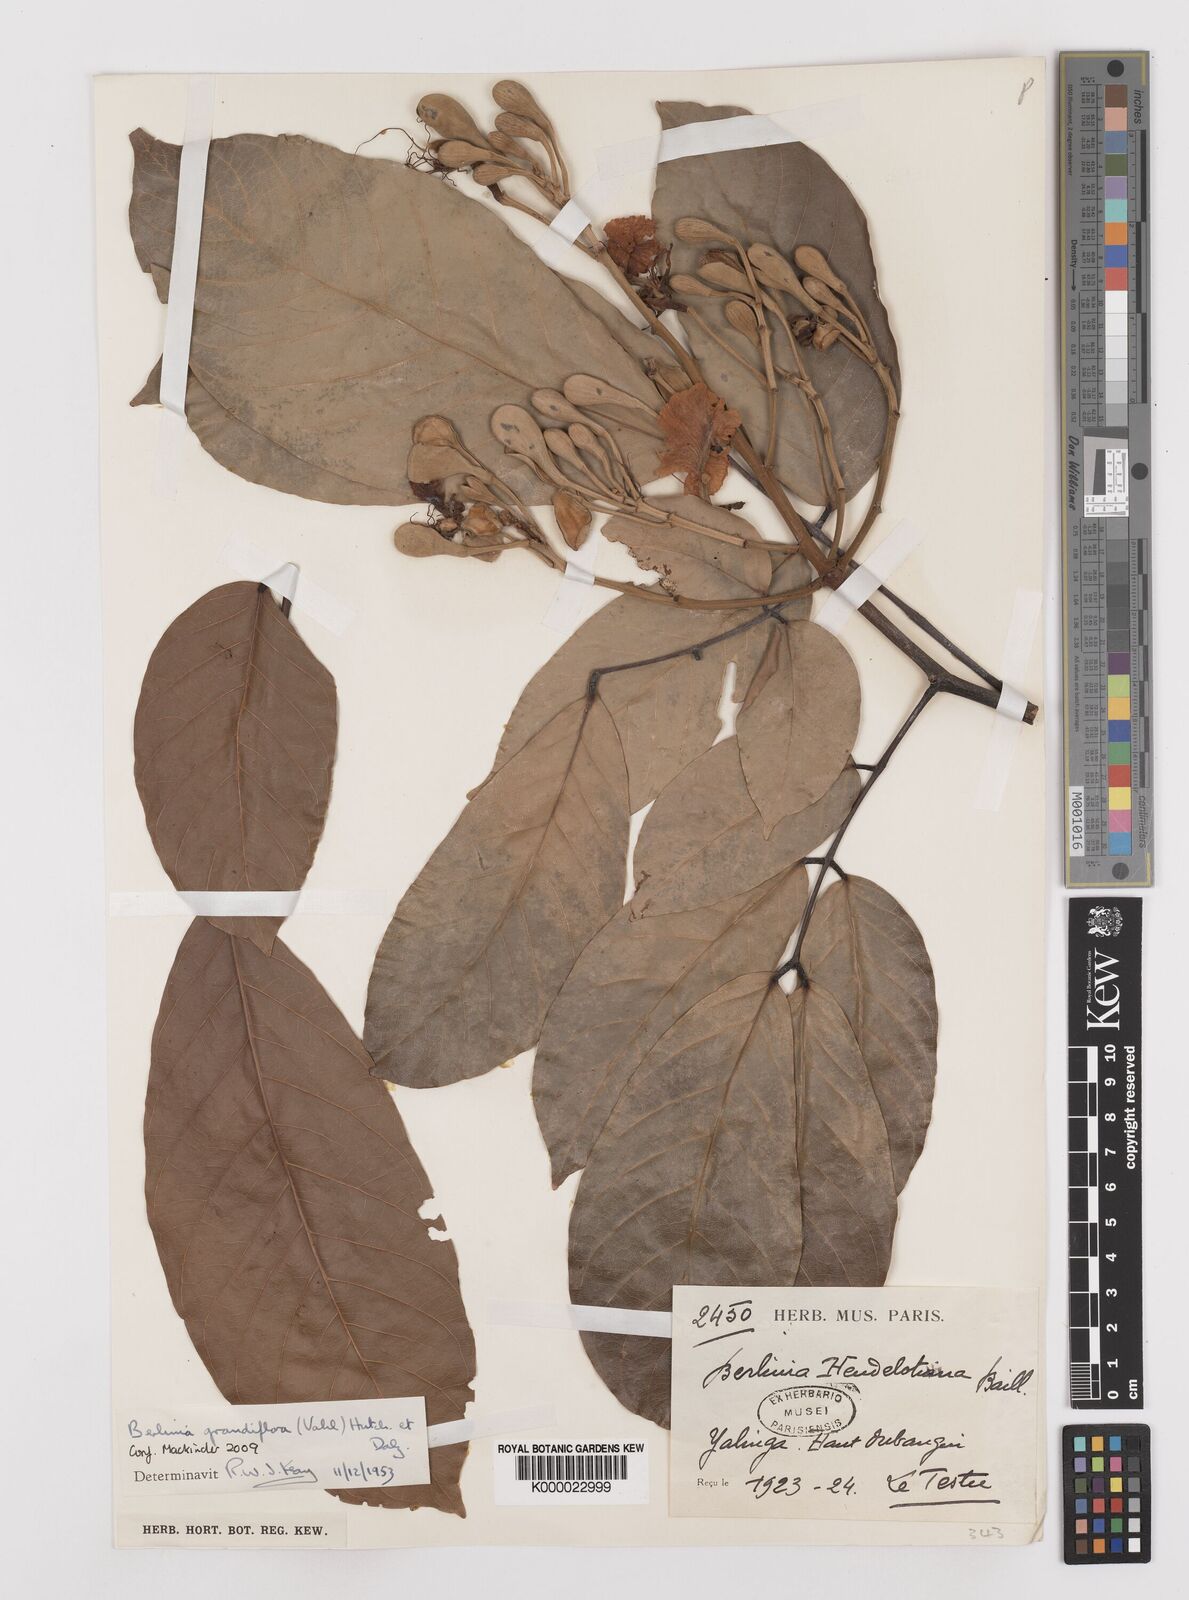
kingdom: Plantae
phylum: Tracheophyta
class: Magnoliopsida
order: Fabales
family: Fabaceae
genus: Berlinia
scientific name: Berlinia grandiflora
